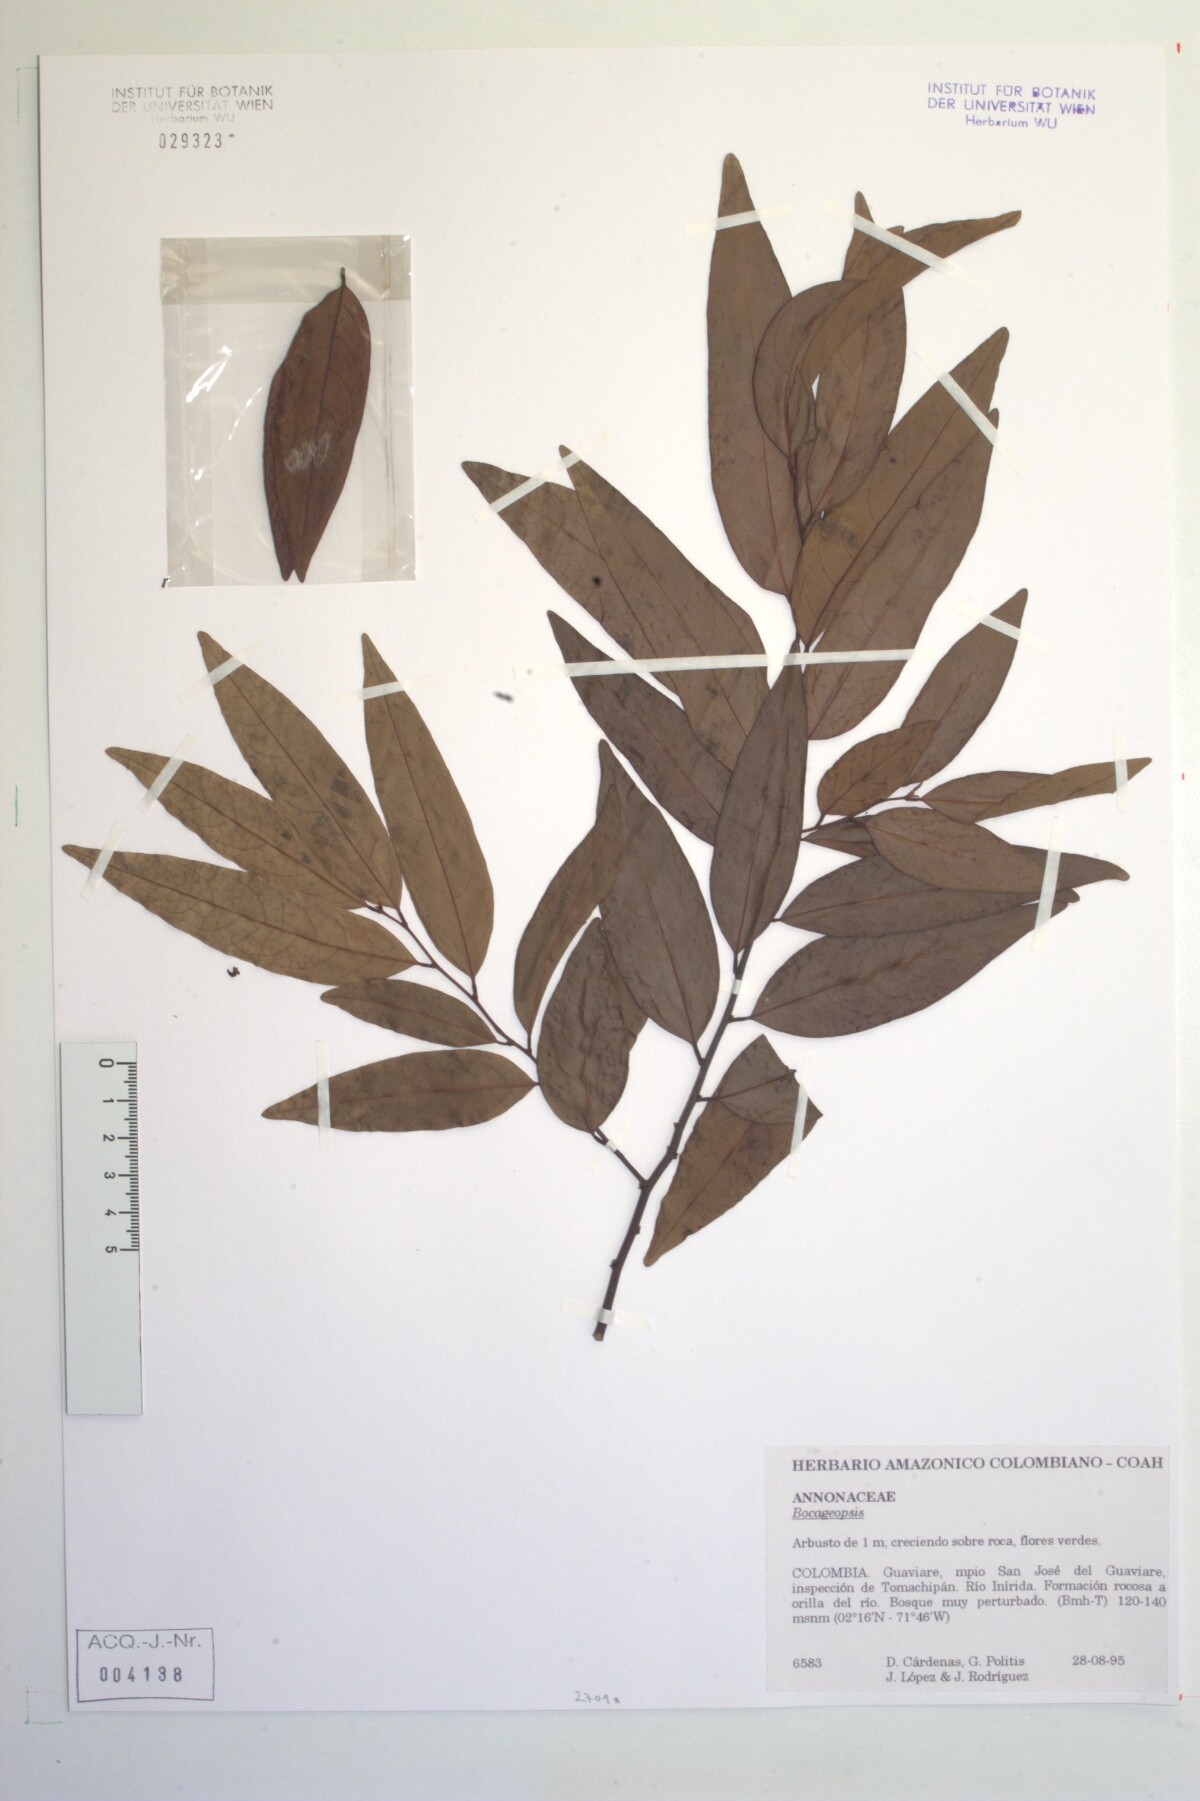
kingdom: Plantae
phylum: Tracheophyta
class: Magnoliopsida
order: Magnoliales
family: Annonaceae
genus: Annona
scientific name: Annona
